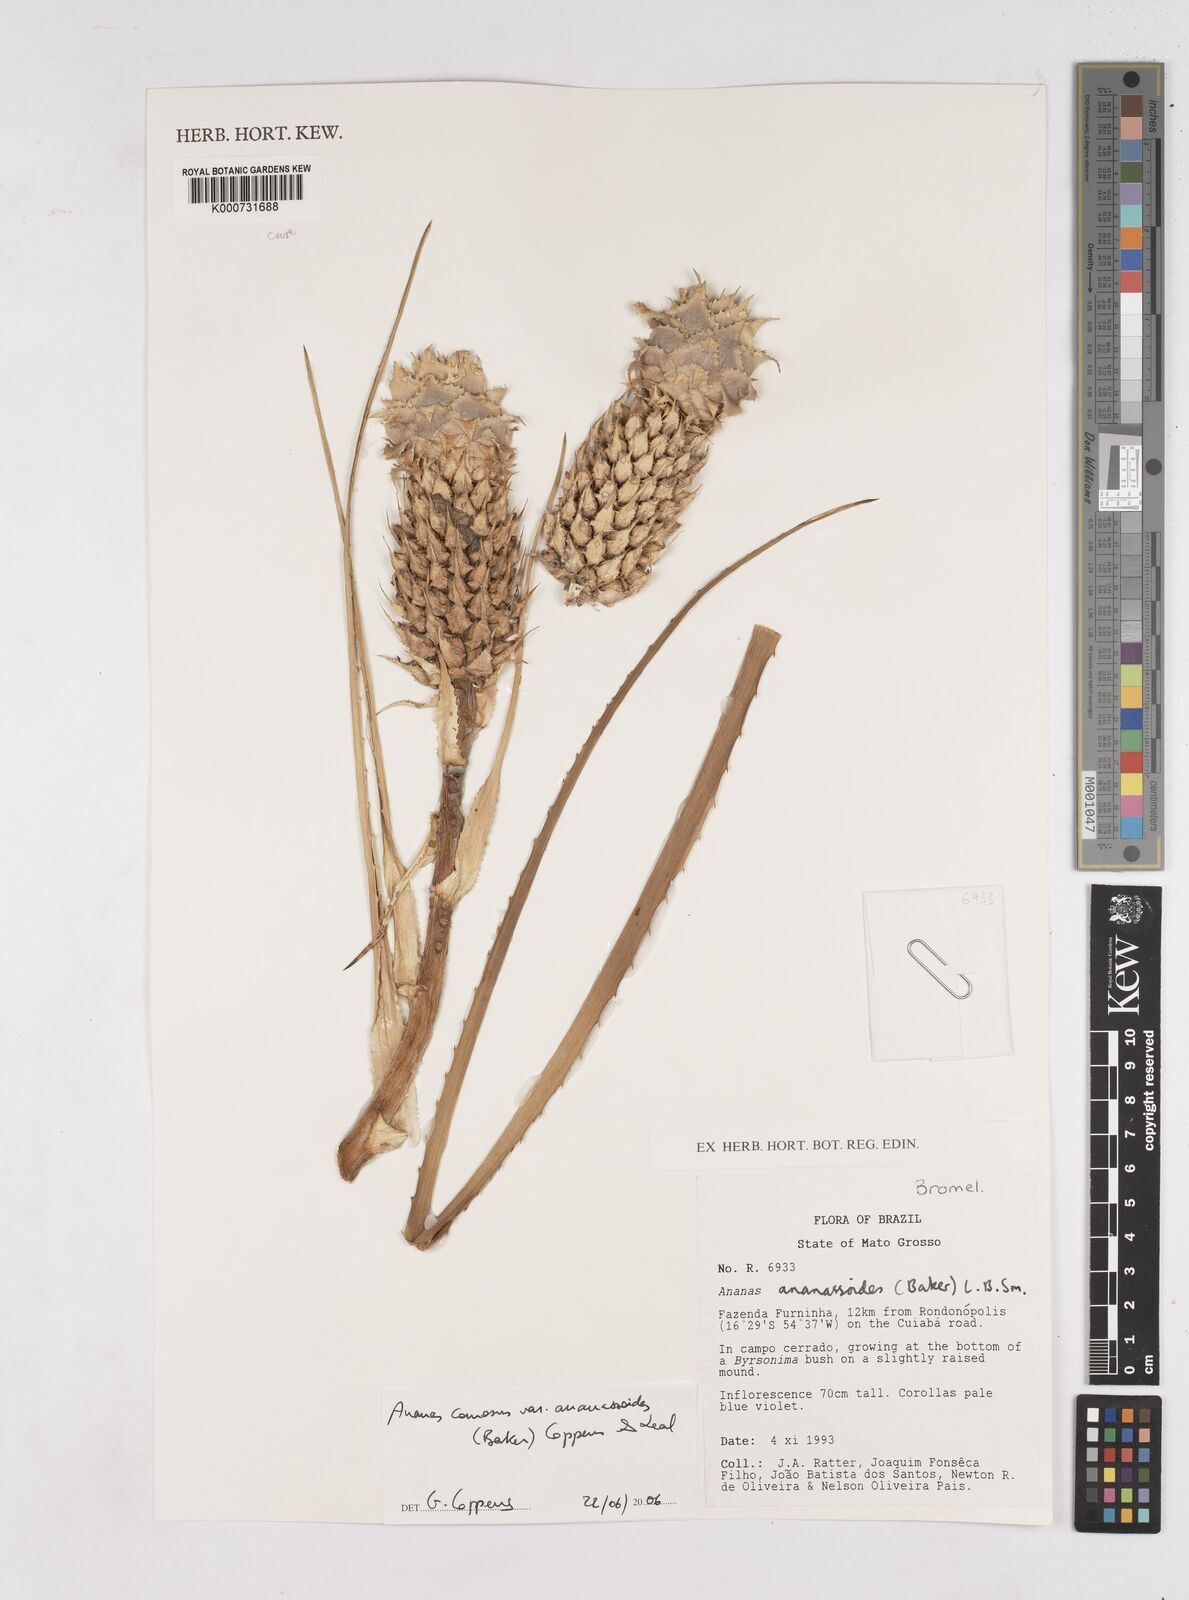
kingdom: Plantae
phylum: Tracheophyta
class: Liliopsida
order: Poales
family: Bromeliaceae
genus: Ananas
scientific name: Ananas comosus
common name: Pineapple
